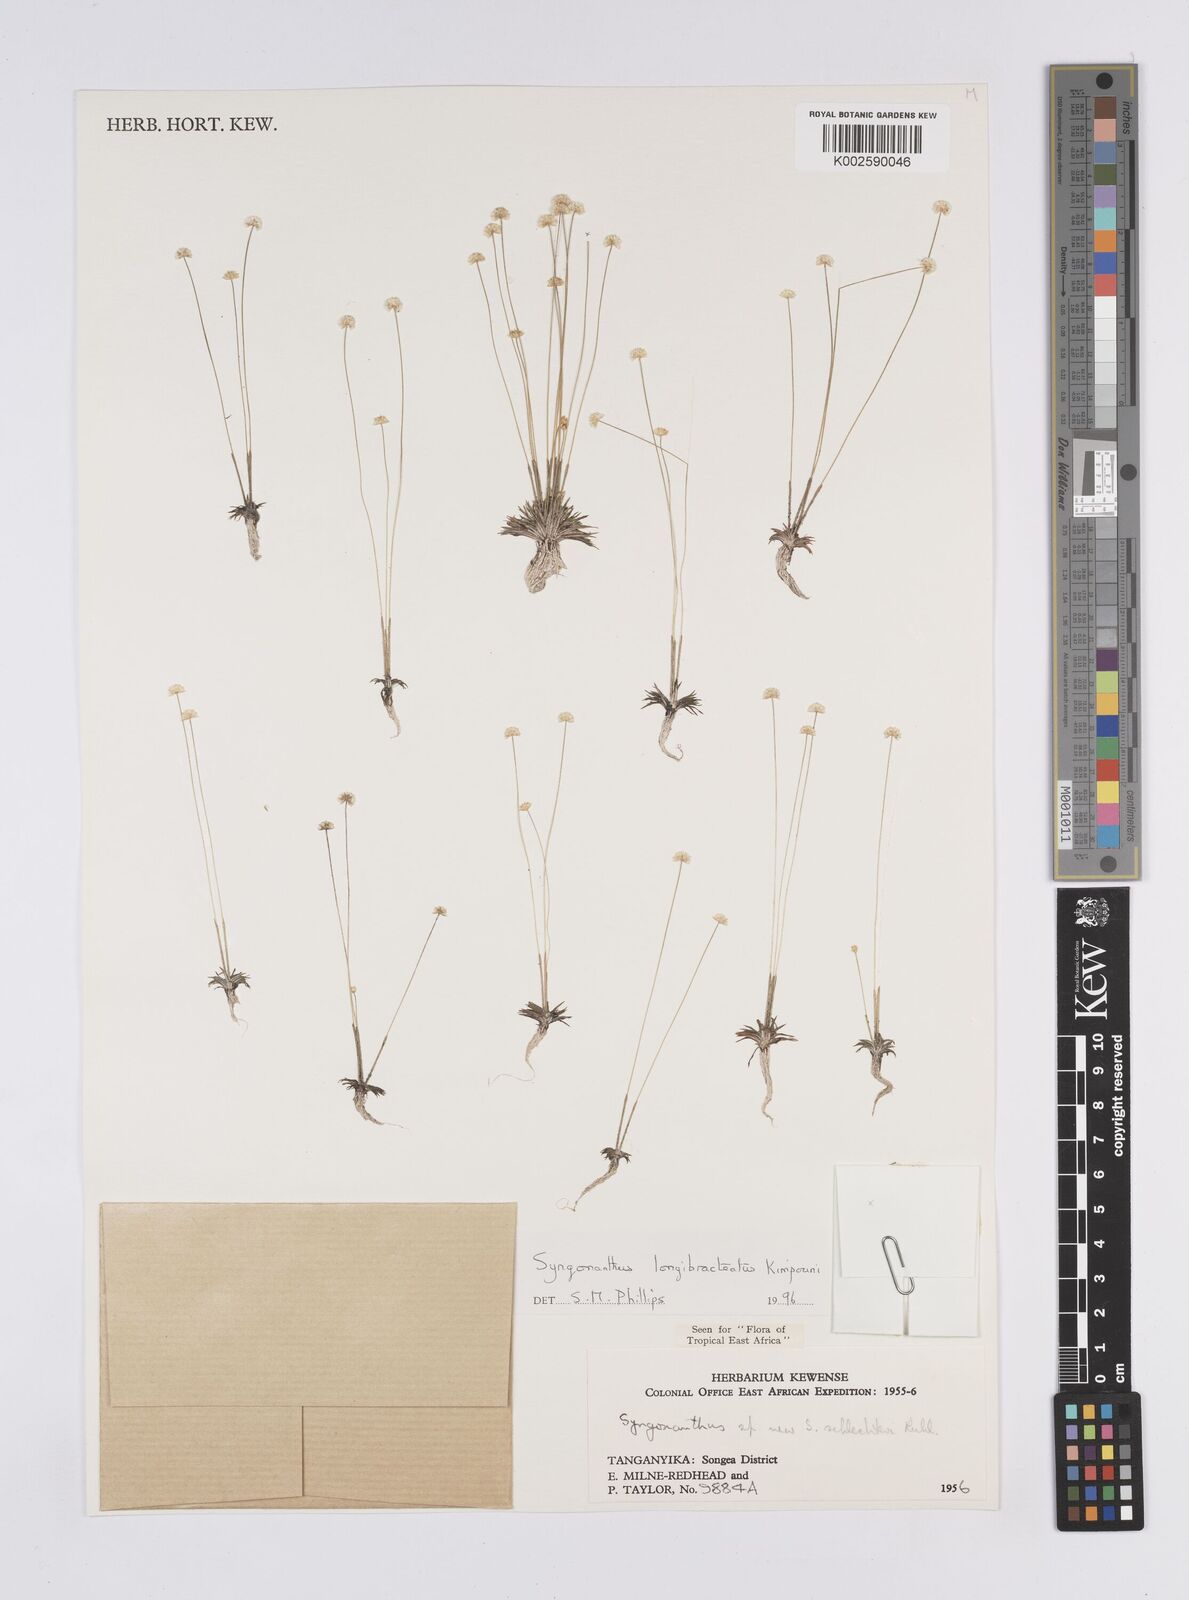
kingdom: Plantae
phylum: Tracheophyta
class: Liliopsida
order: Poales
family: Eriocaulaceae
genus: Syngonanthus
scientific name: Syngonanthus longibracteatus
